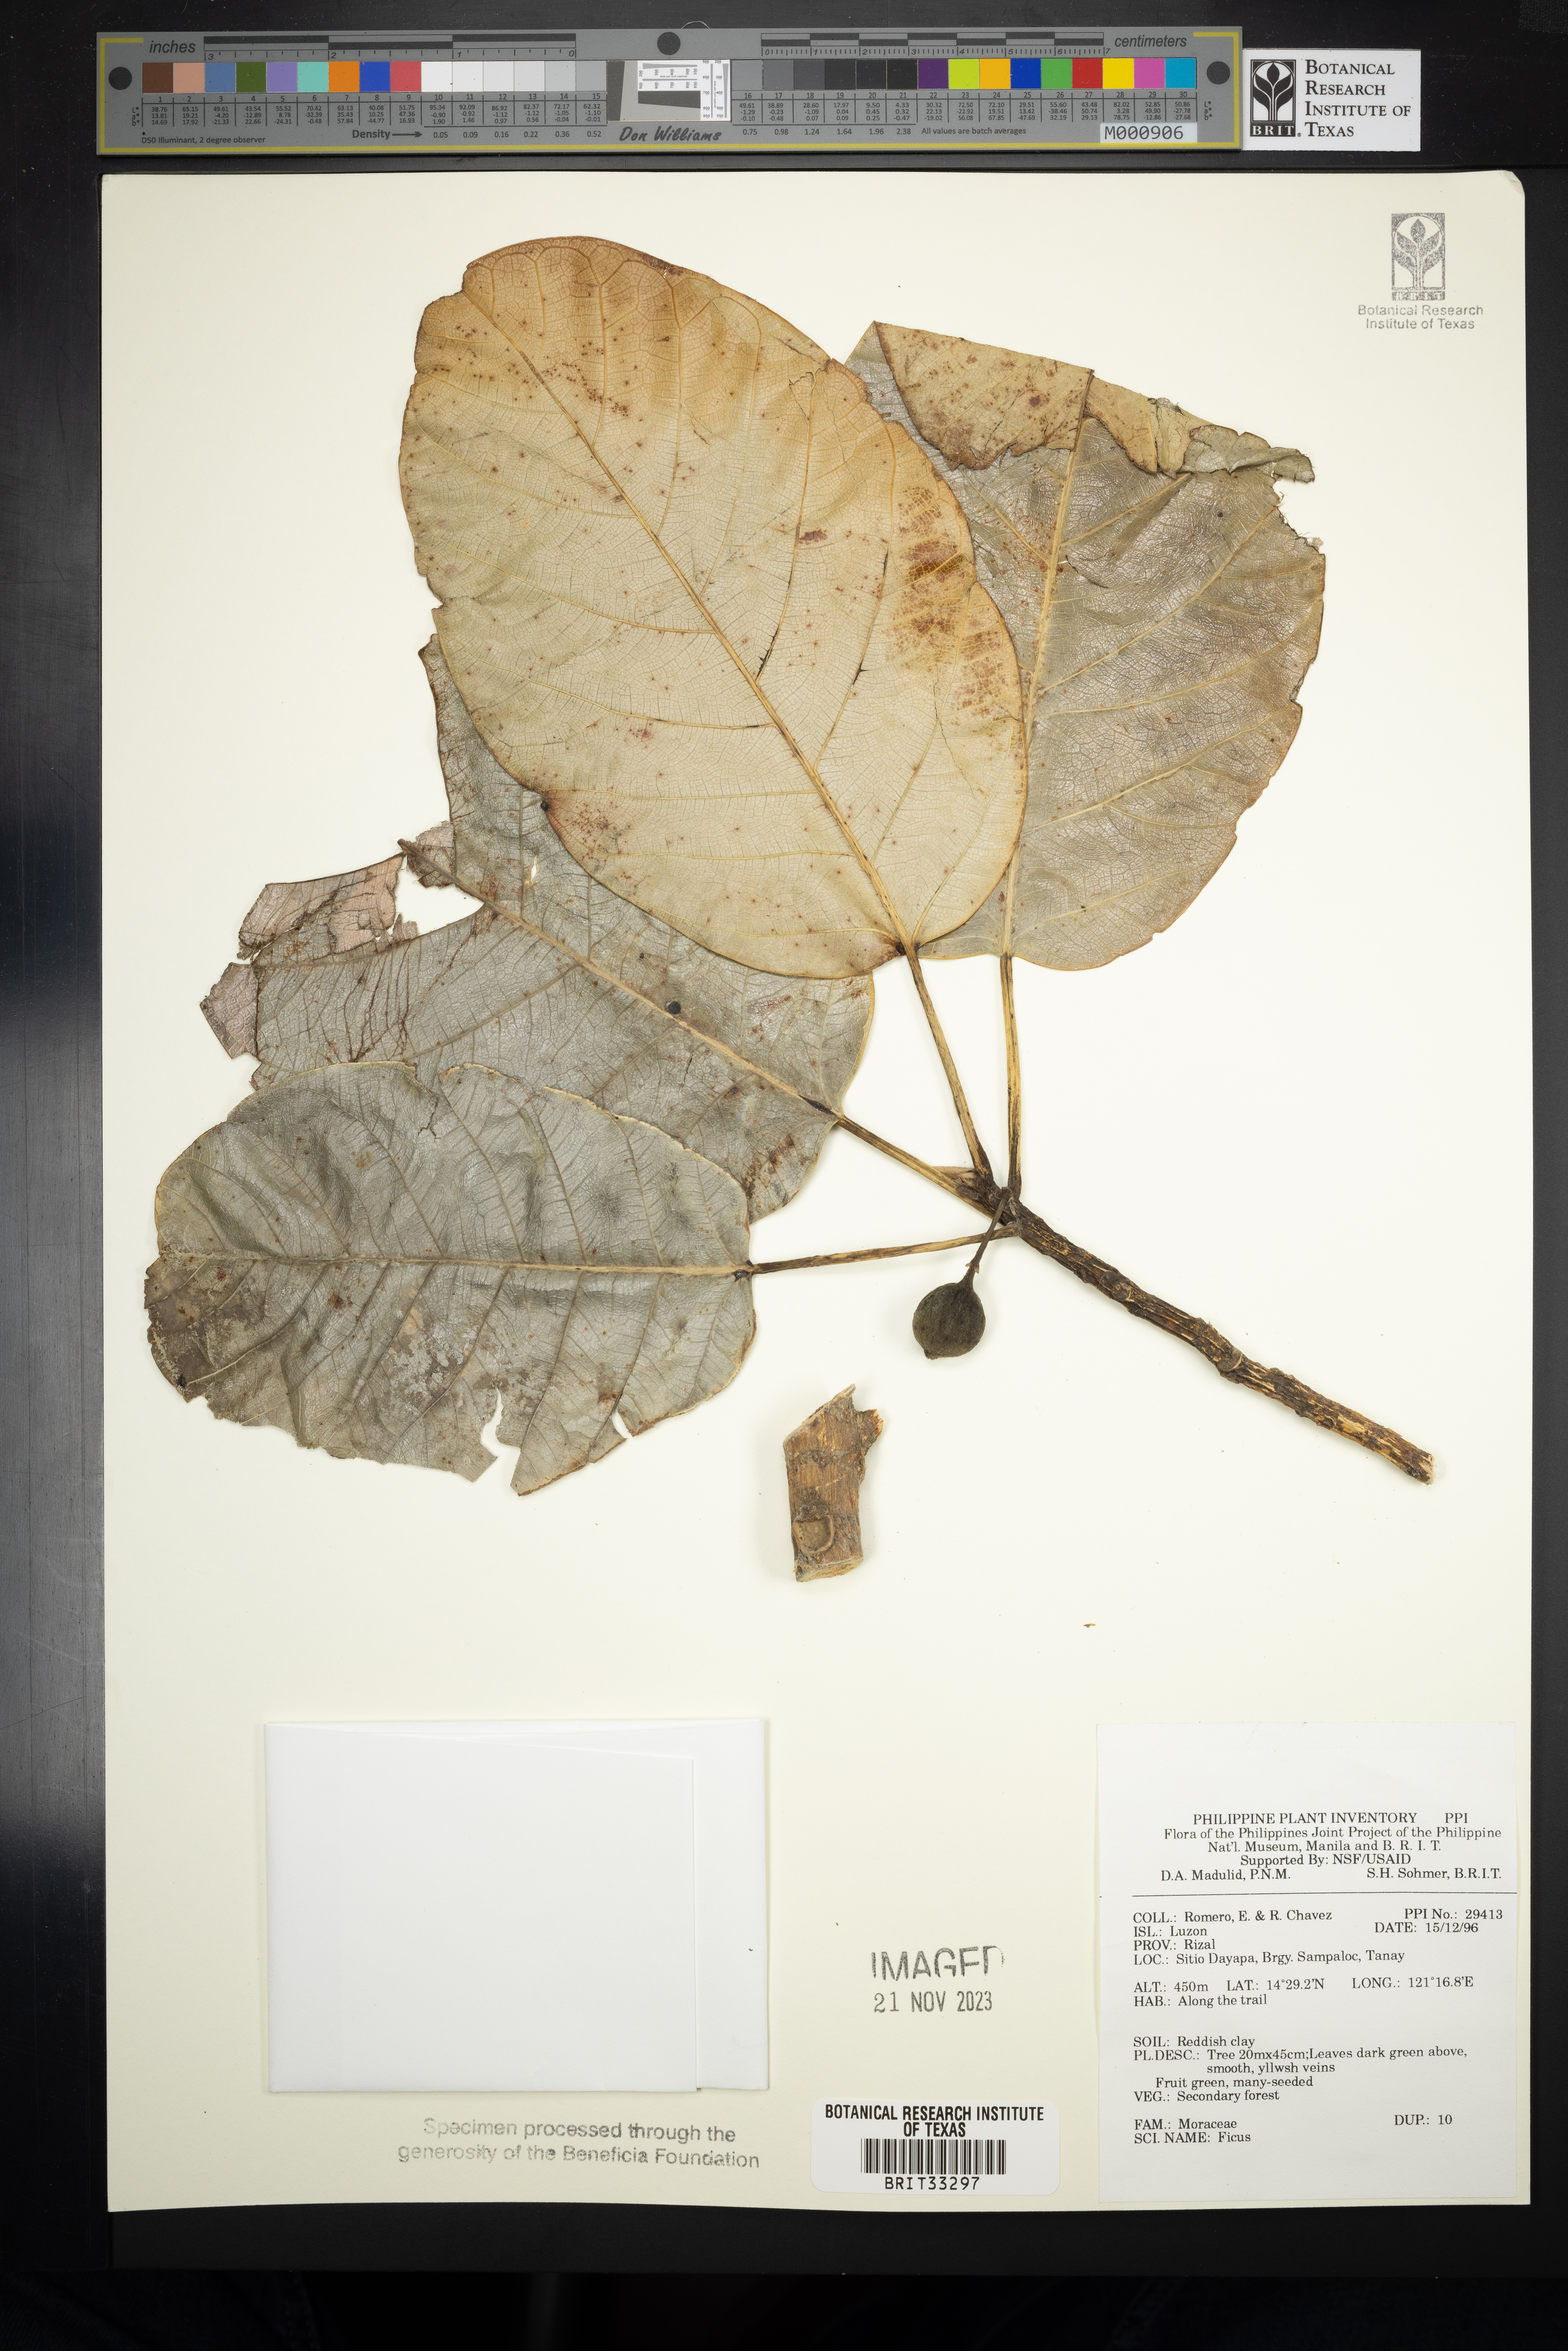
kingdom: Plantae
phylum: Tracheophyta
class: Magnoliopsida
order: Rosales
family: Moraceae
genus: Ficus
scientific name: Ficus
